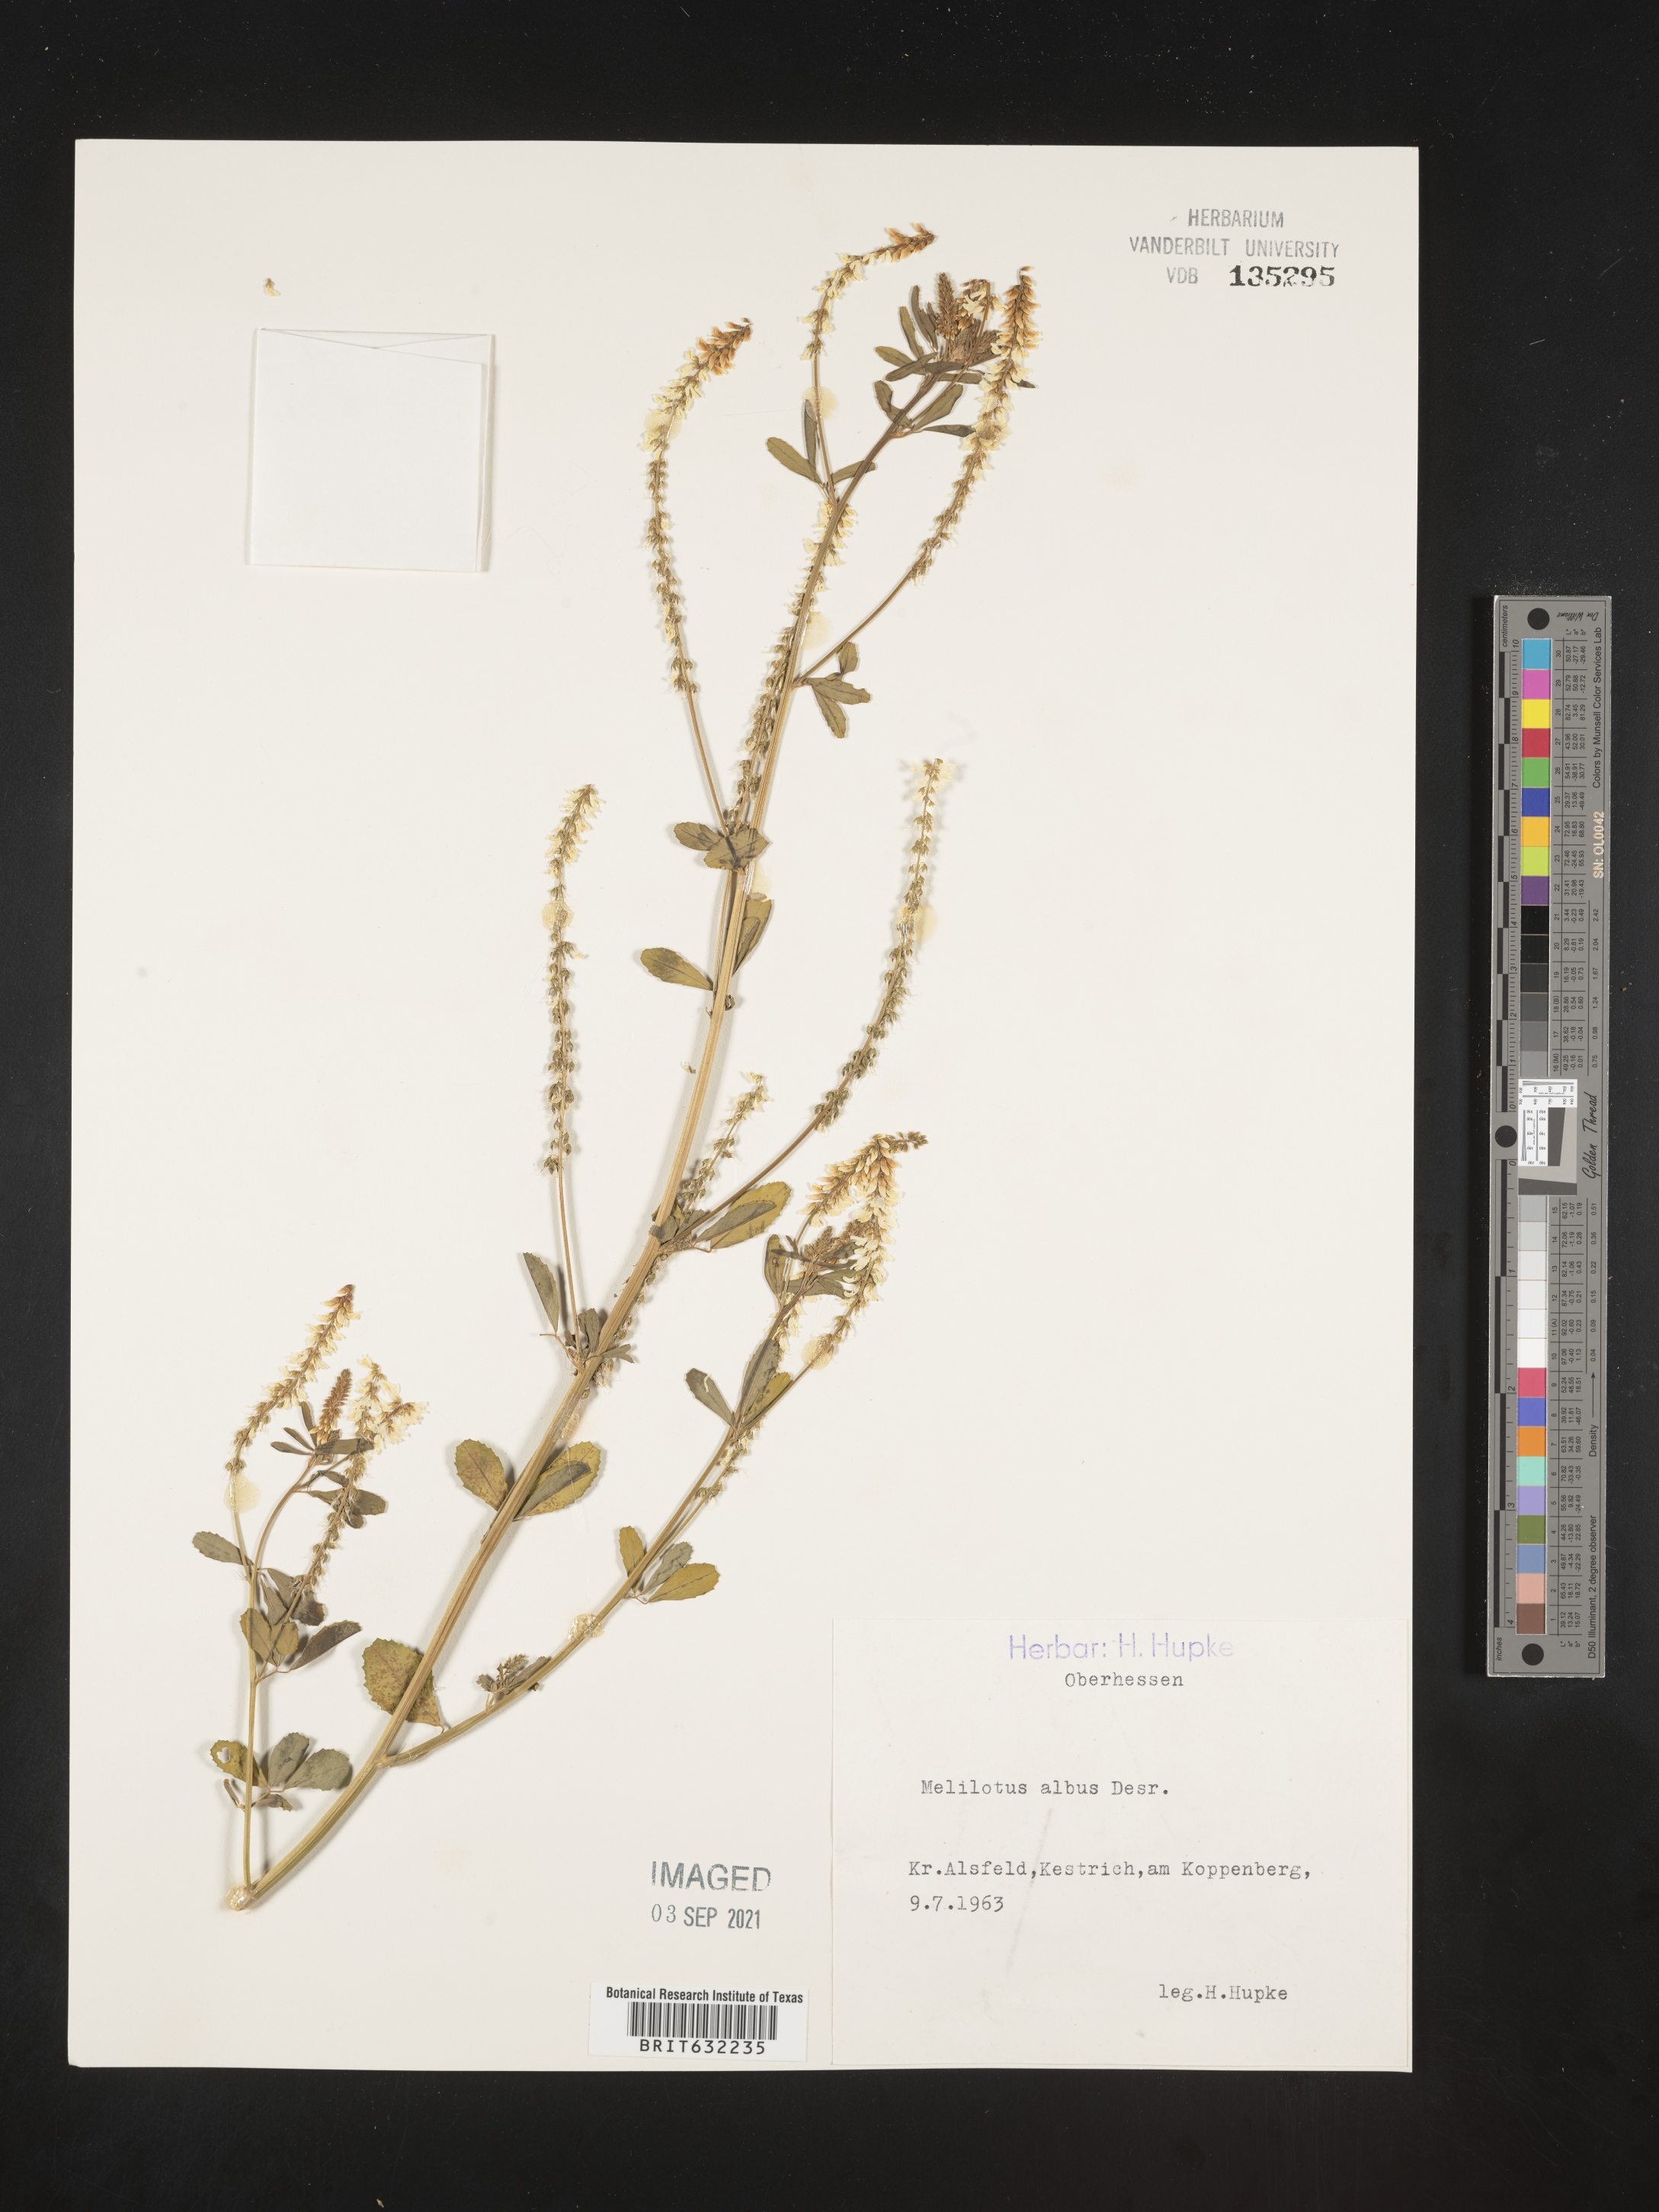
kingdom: Plantae
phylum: Tracheophyta
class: Magnoliopsida
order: Fabales
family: Fabaceae
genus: Melilotus
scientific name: Melilotus
